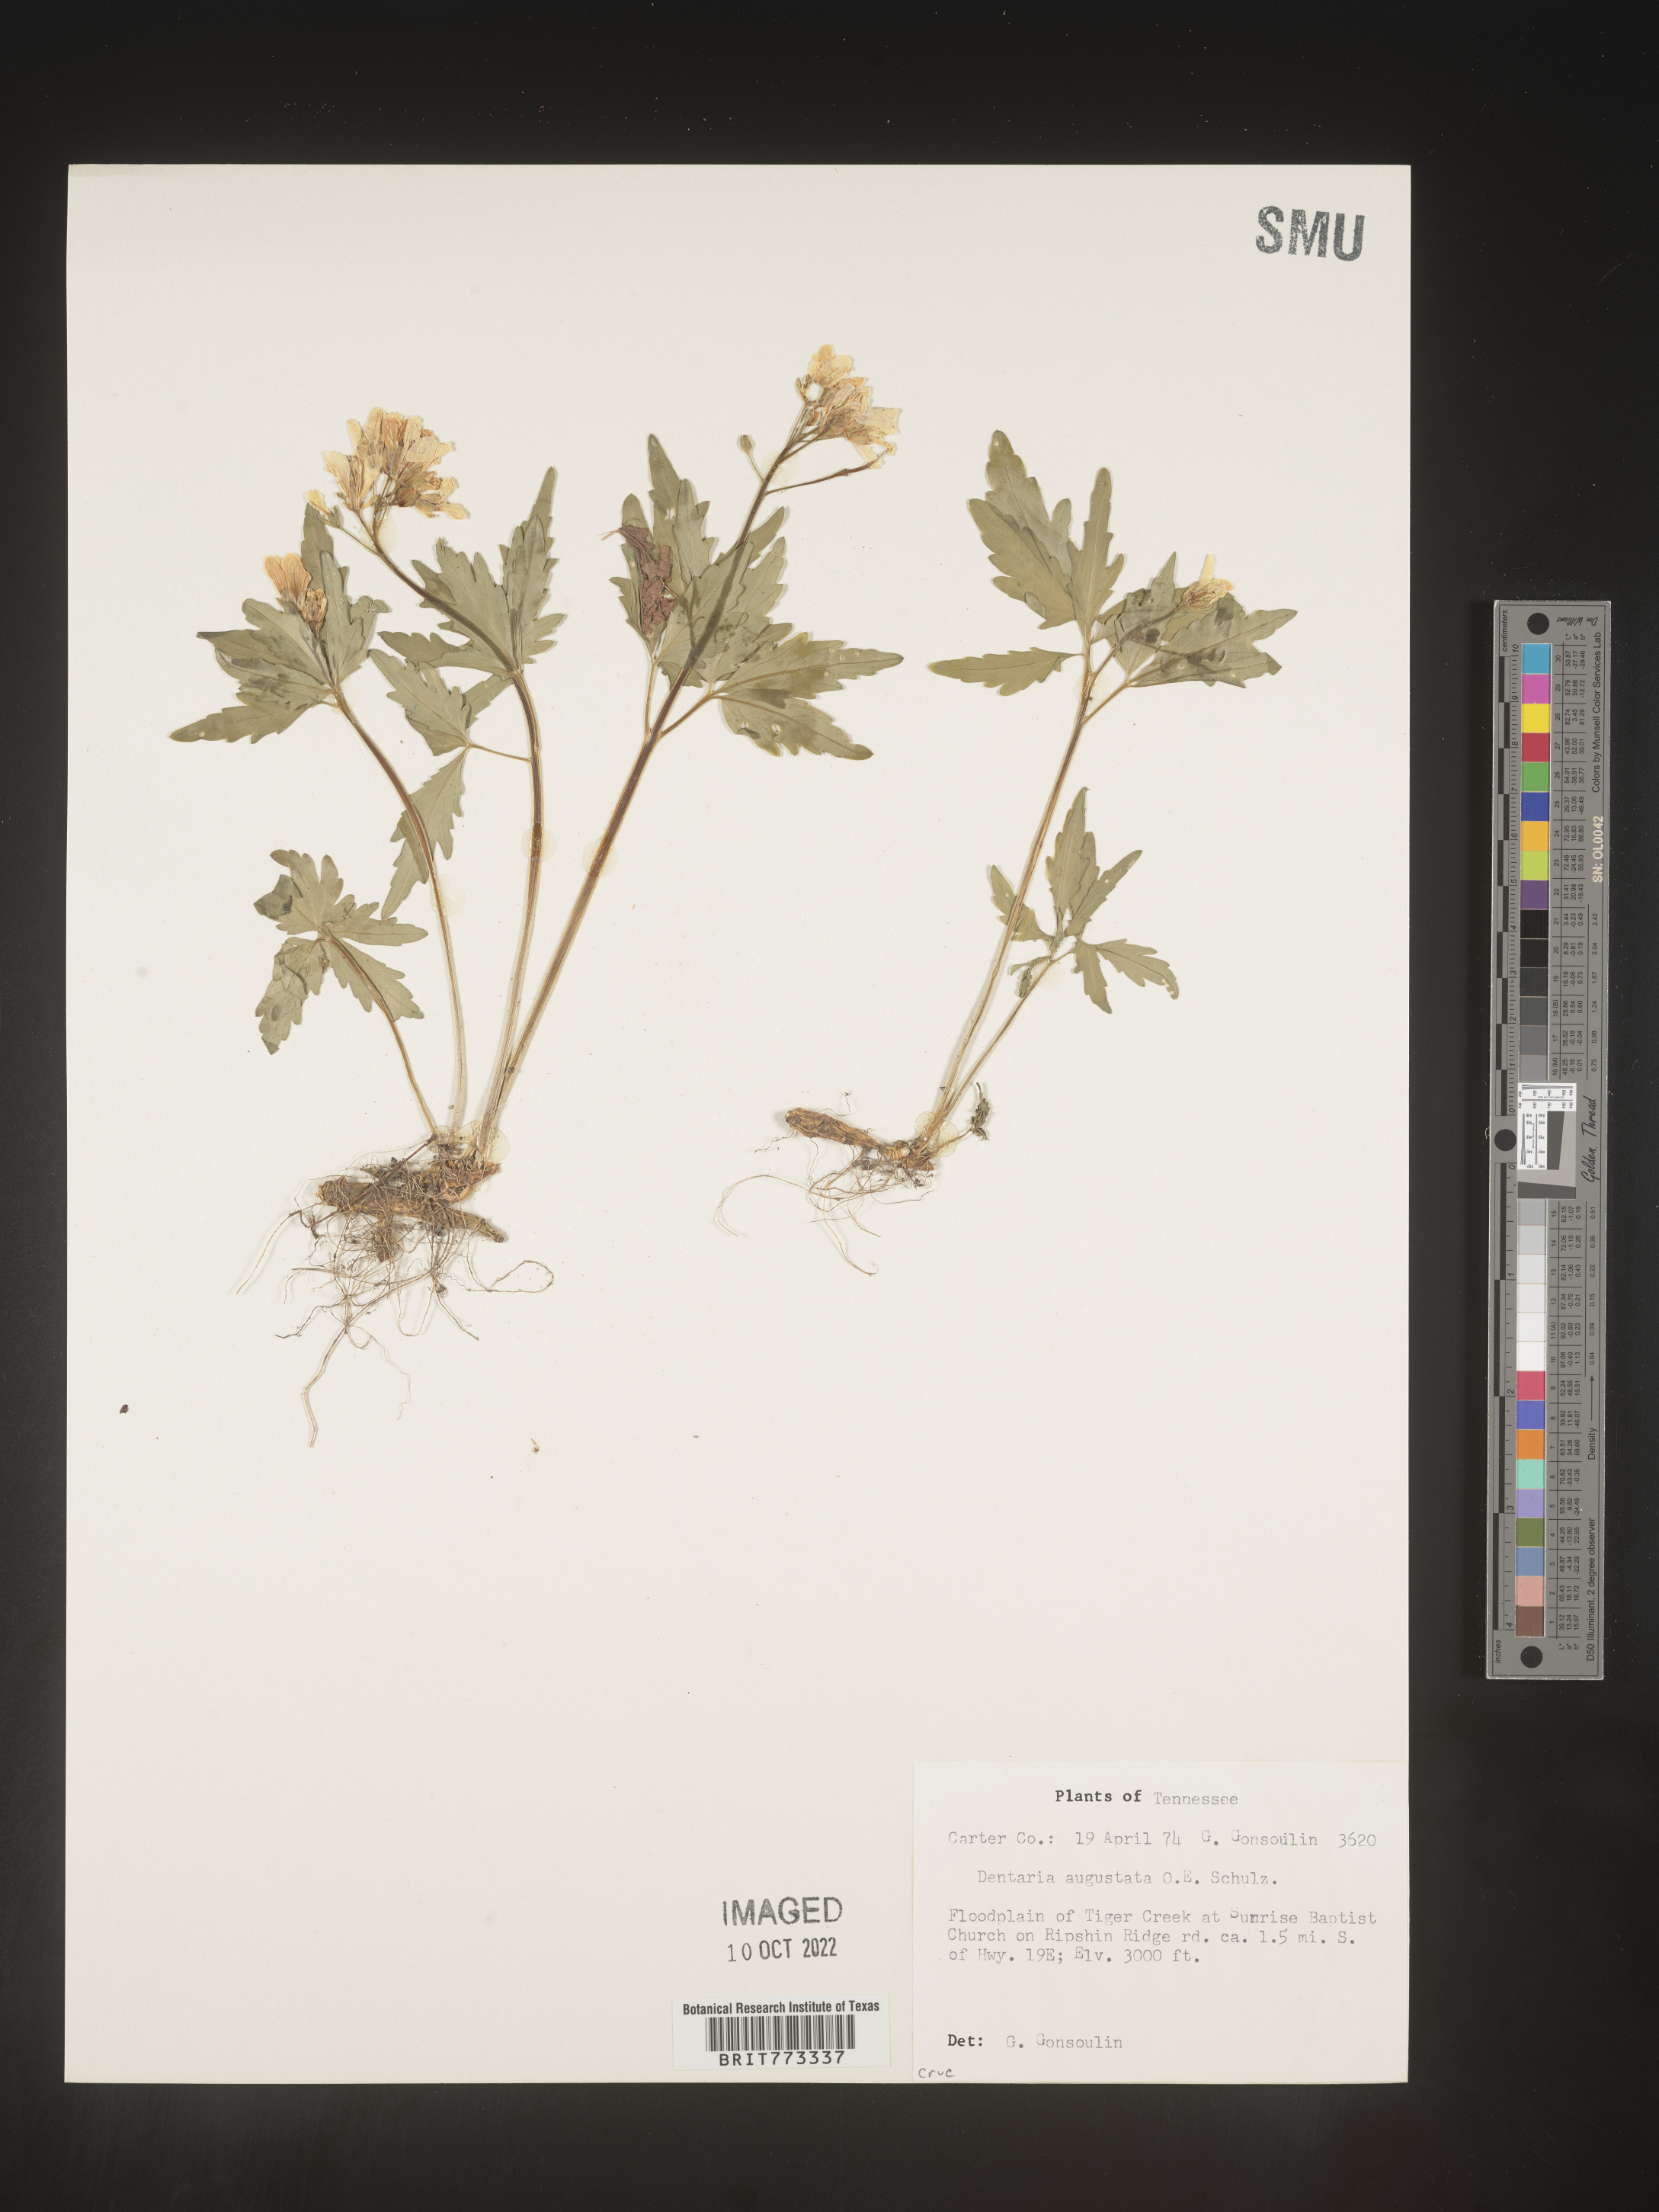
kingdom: Plantae
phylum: Tracheophyta
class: Magnoliopsida
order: Brassicales
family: Brassicaceae
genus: Cardamine
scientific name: Cardamine
